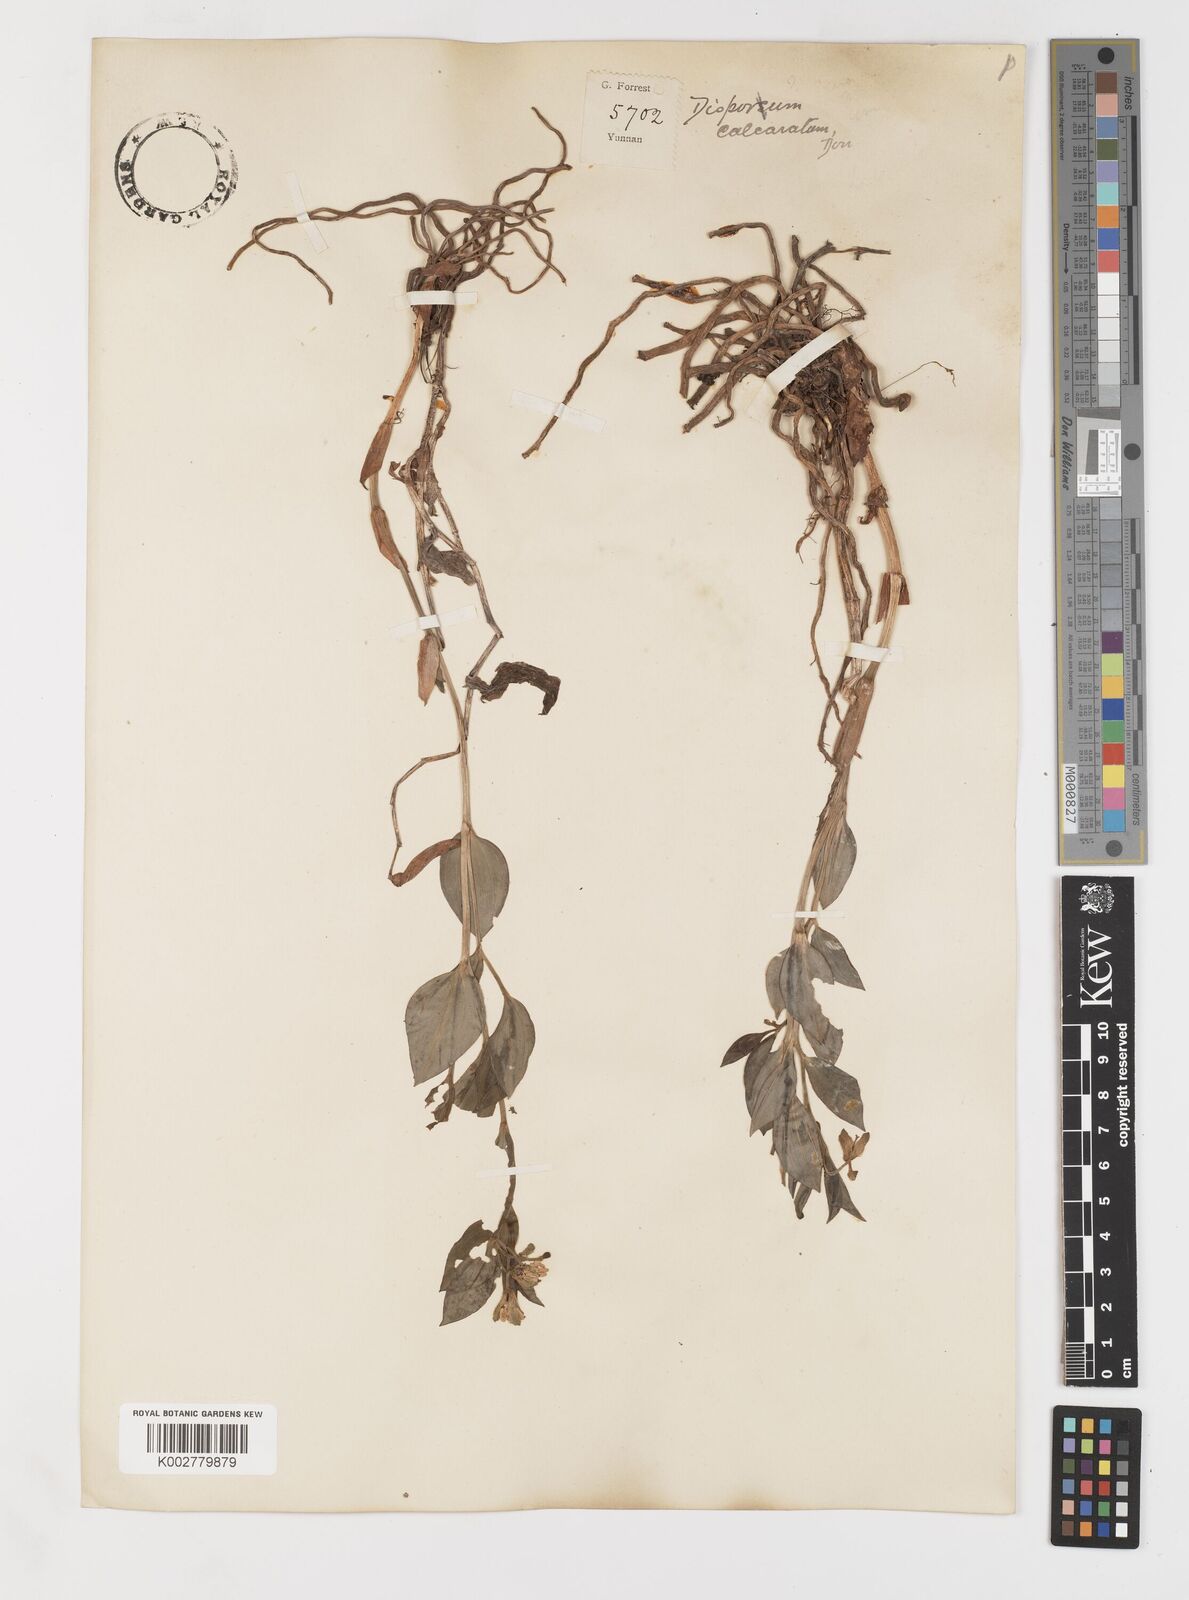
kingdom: Plantae
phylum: Tracheophyta
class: Liliopsida
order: Liliales
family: Colchicaceae
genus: Disporum
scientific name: Disporum
